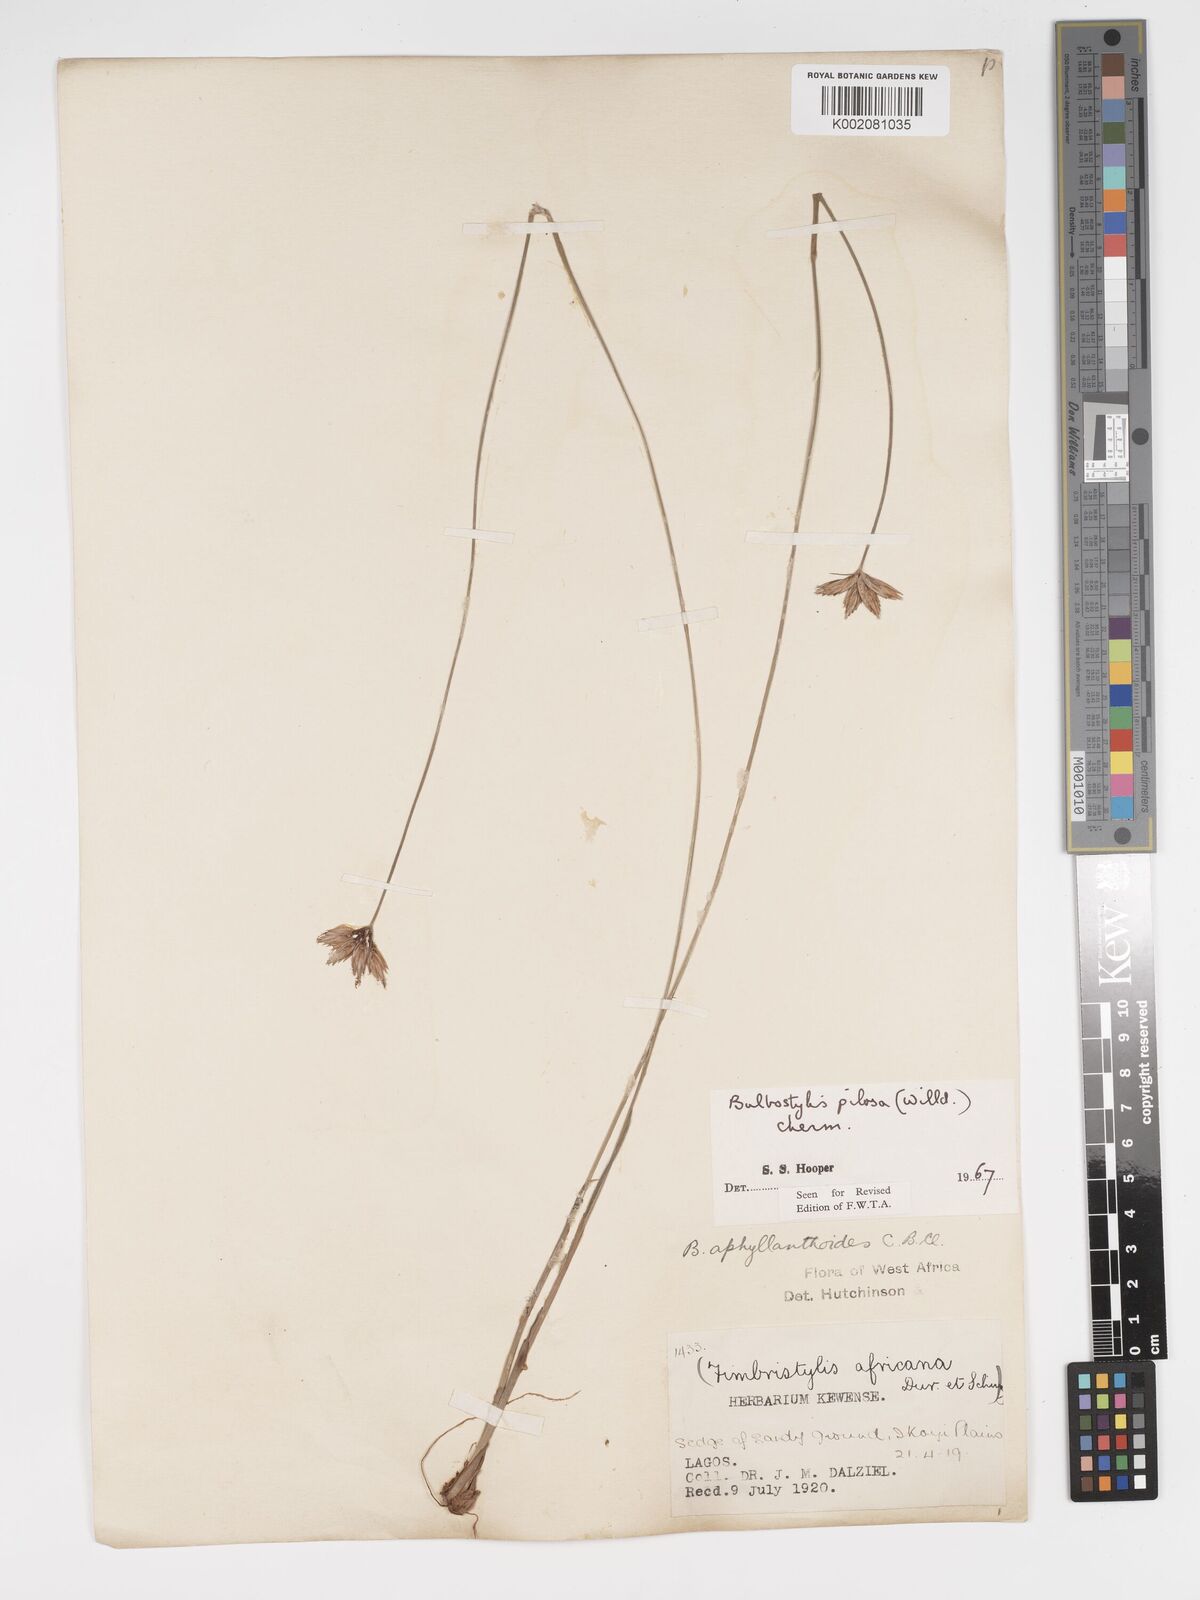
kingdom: Plantae
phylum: Tracheophyta
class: Liliopsida
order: Poales
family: Cyperaceae
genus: Bulbostylis
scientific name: Bulbostylis pilosa
